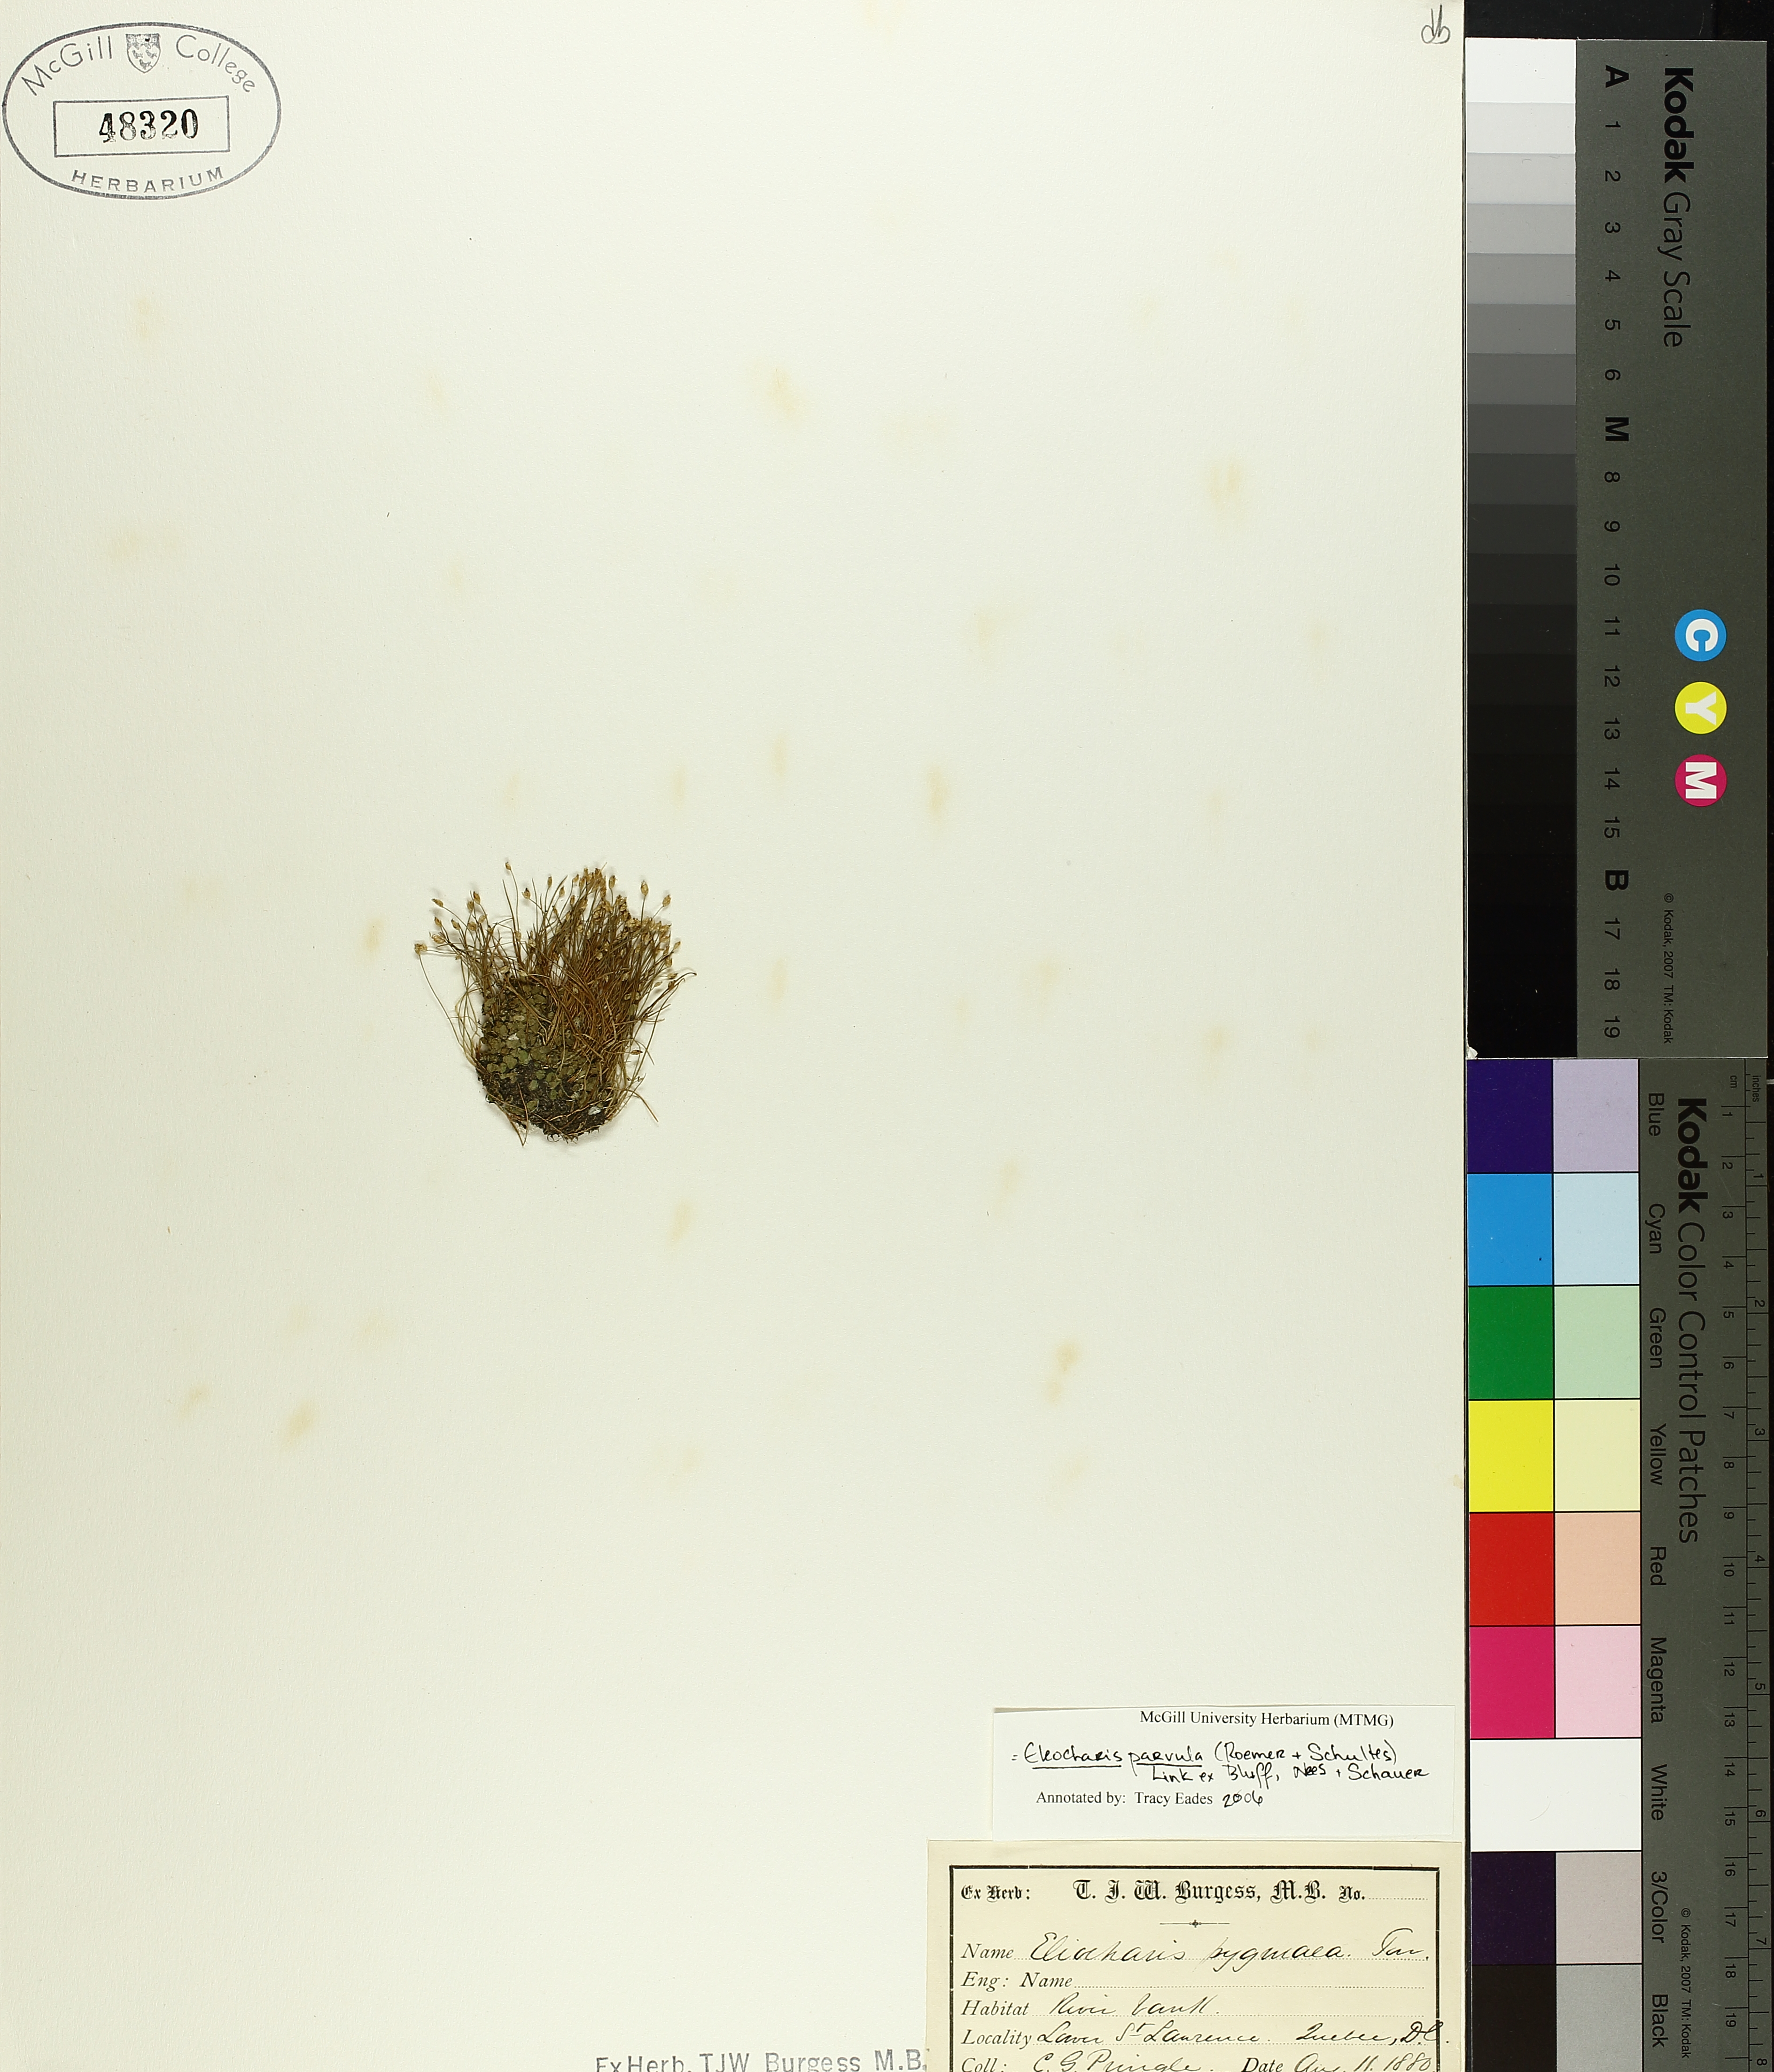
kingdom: Plantae
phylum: Tracheophyta
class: Liliopsida
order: Poales
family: Cyperaceae
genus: Eleocharis
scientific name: Eleocharis parvula
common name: Dwarf spike-rush
